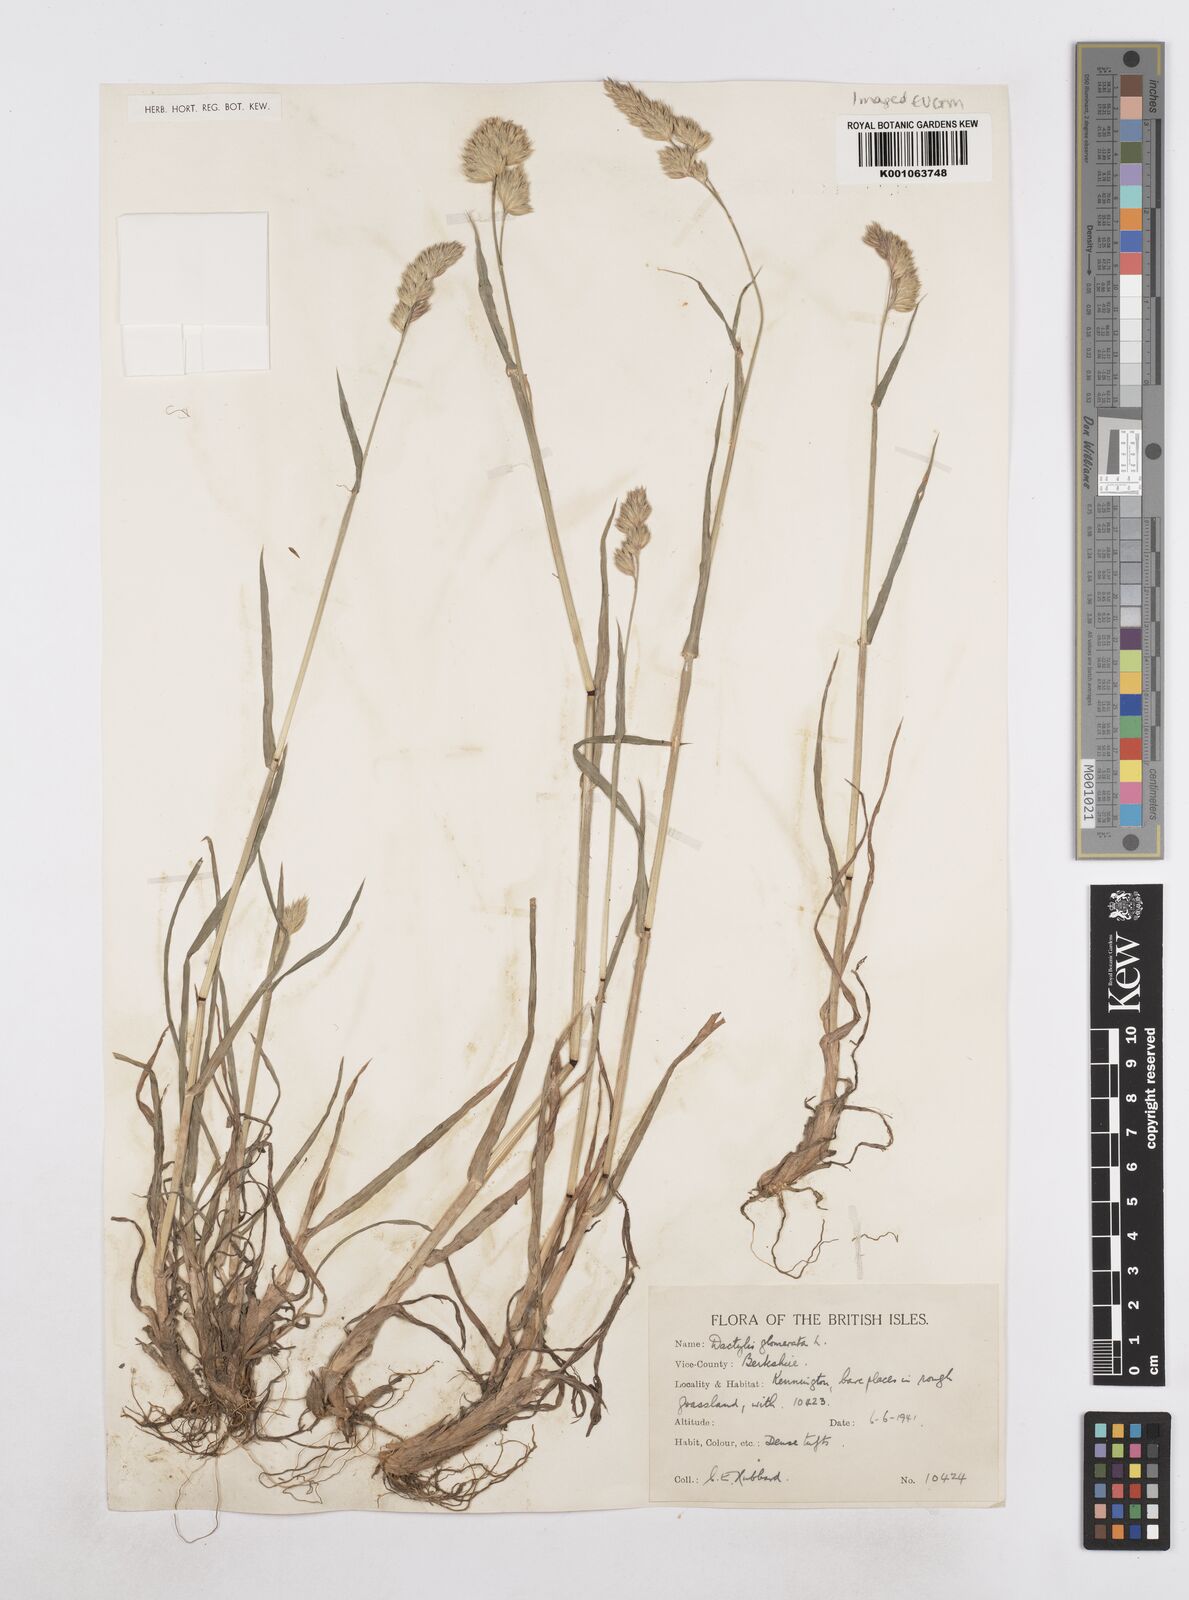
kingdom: Plantae
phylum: Tracheophyta
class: Liliopsida
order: Poales
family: Poaceae
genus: Dactylis
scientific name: Dactylis glomerata
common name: Orchardgrass
